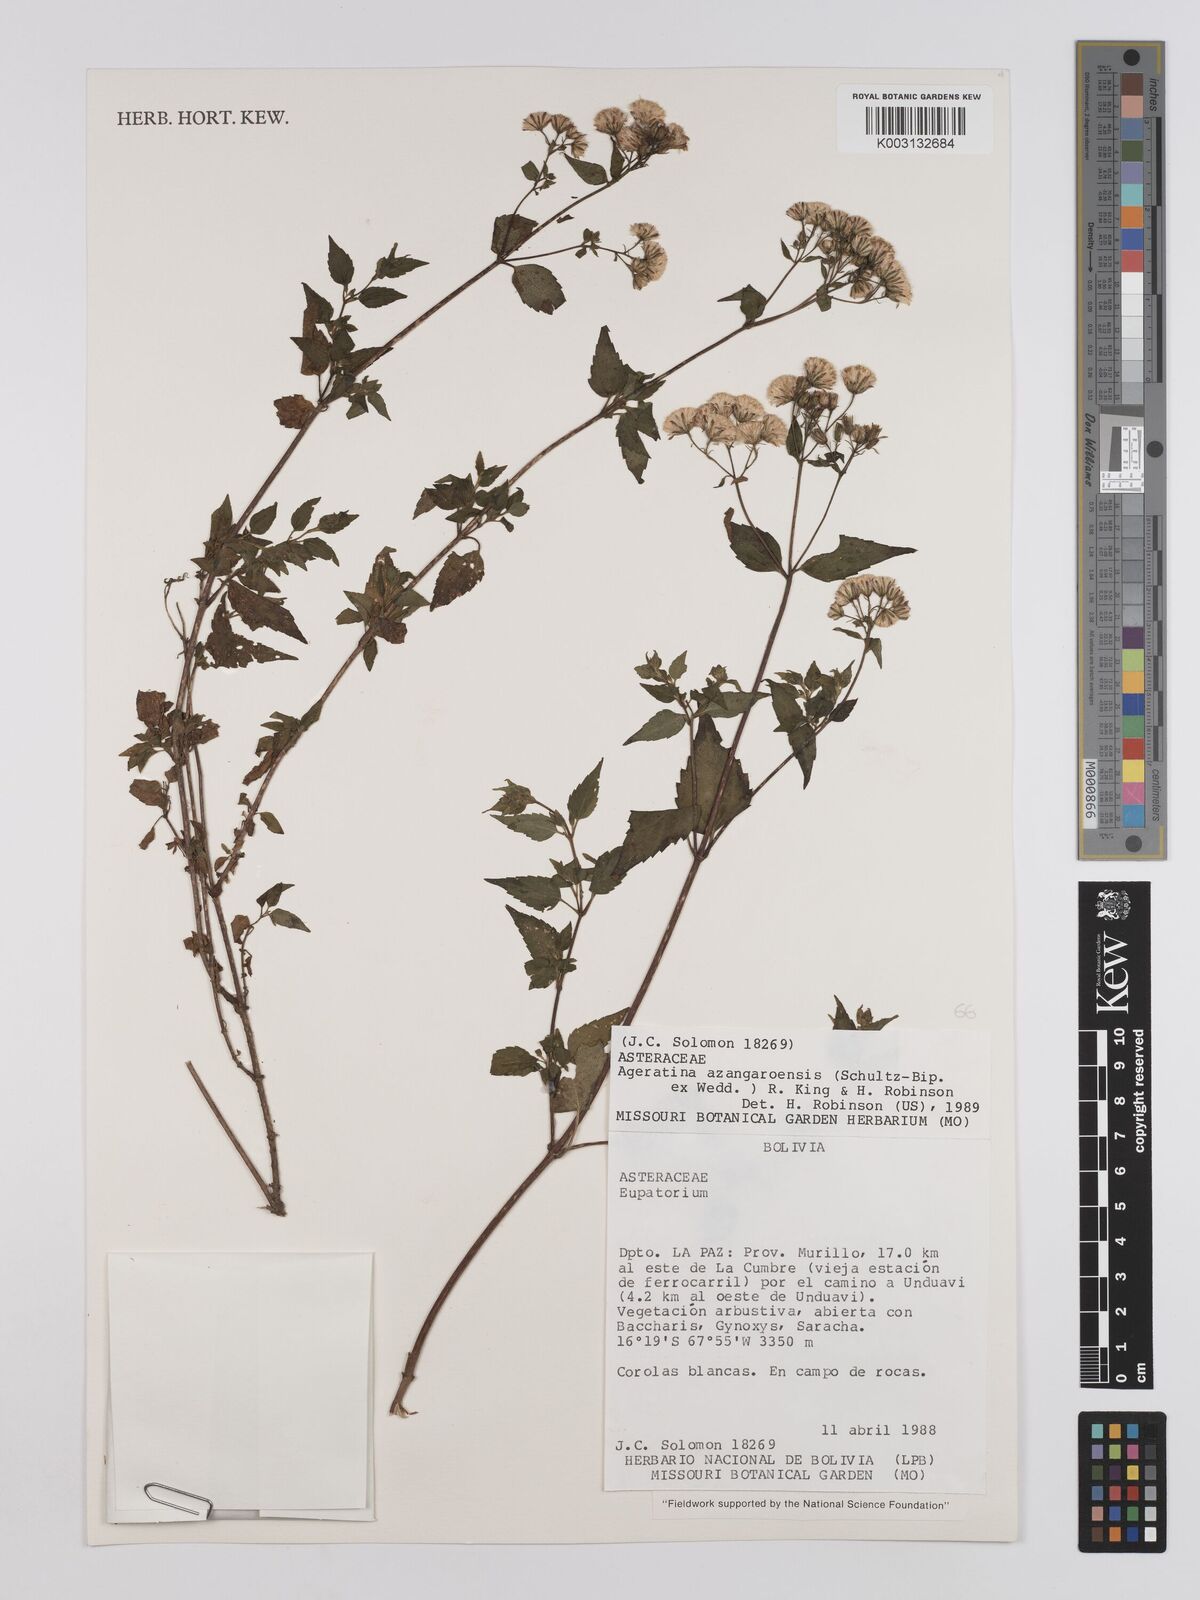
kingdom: Plantae
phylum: Tracheophyta
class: Magnoliopsida
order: Asterales
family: Asteraceae
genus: Ageratina
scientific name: Ageratina glechonophylla
